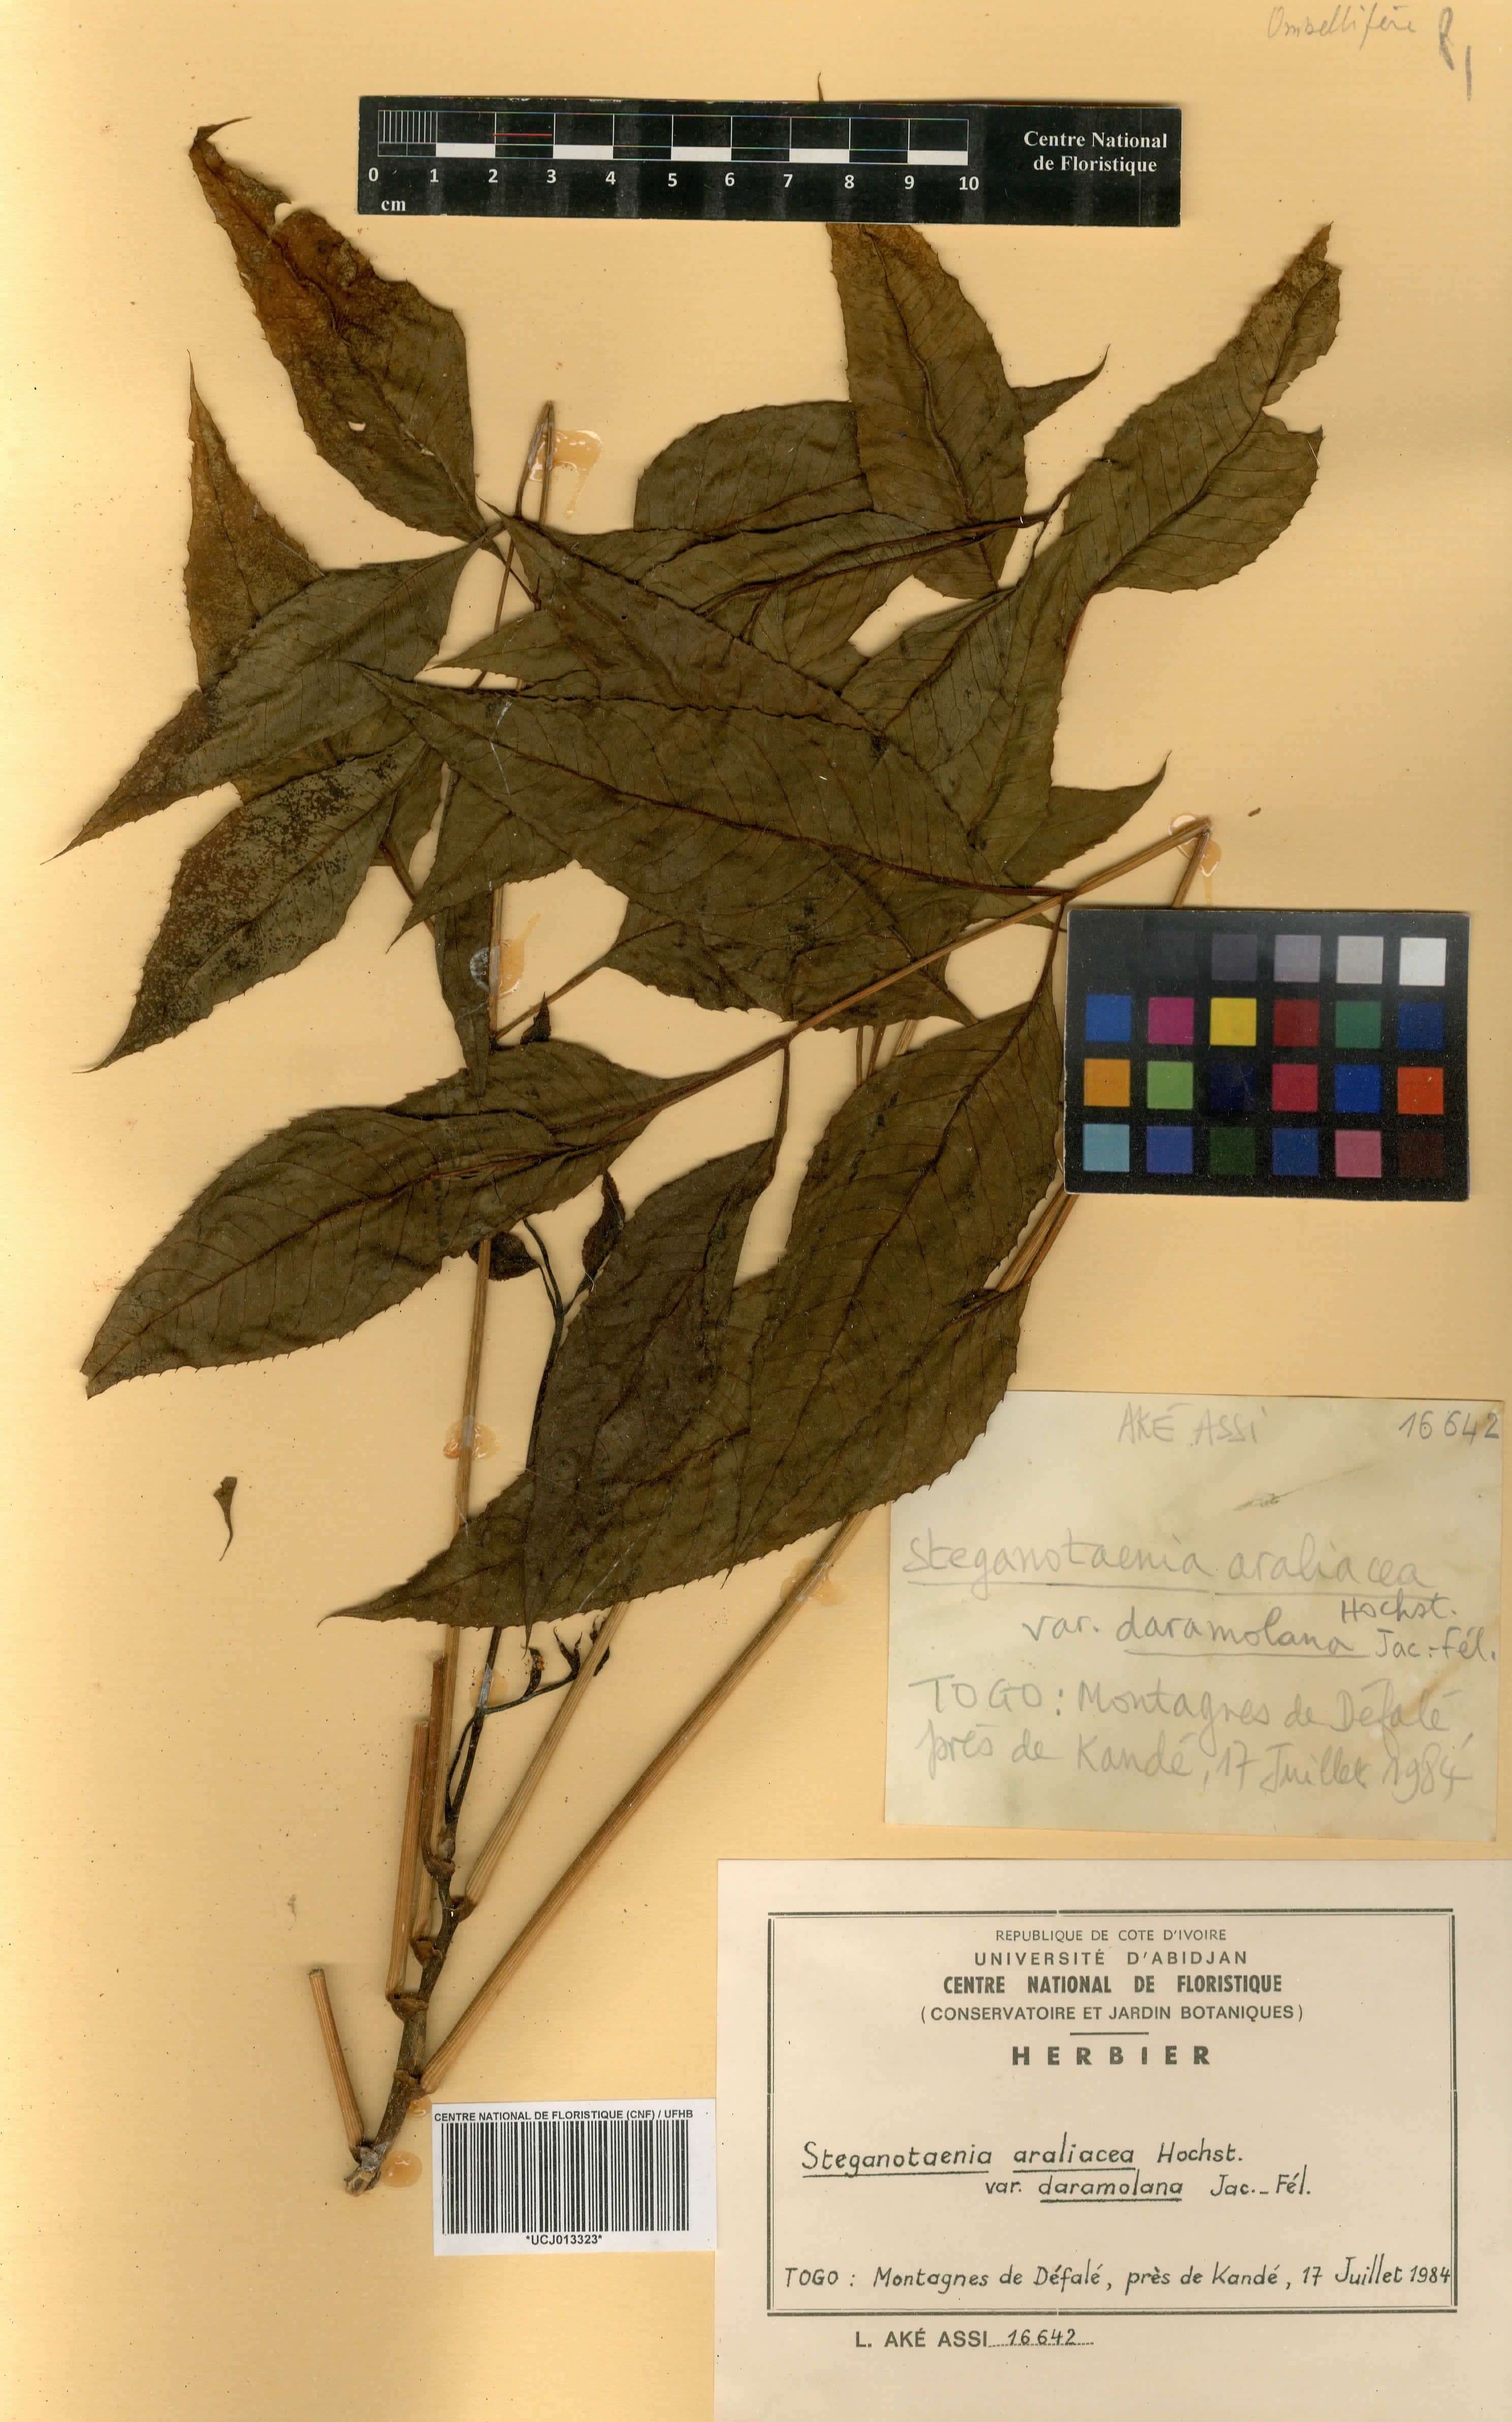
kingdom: Plantae
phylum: Tracheophyta
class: Magnoliopsida
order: Apiales
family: Apiaceae
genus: Steganotaenia
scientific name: Steganotaenia araliacea
